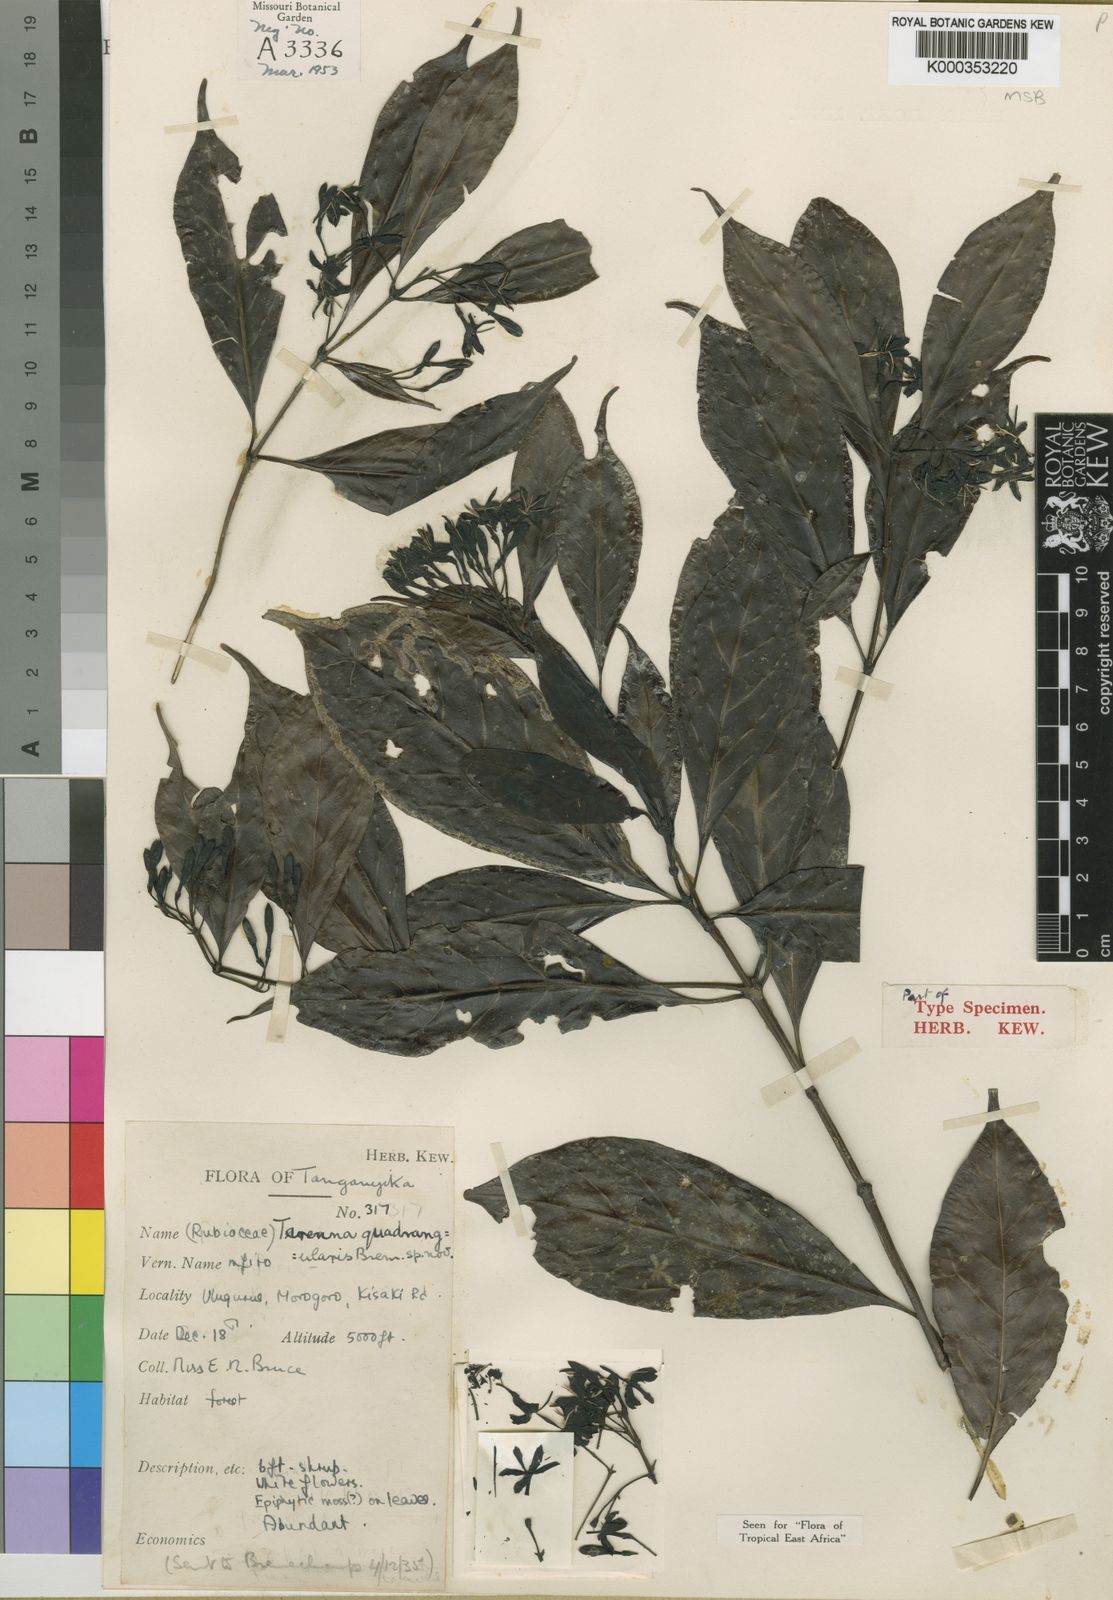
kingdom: Plantae
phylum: Tracheophyta
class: Magnoliopsida
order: Gentianales
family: Rubiaceae
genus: Tarenna
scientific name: Tarenna quadrangularis
